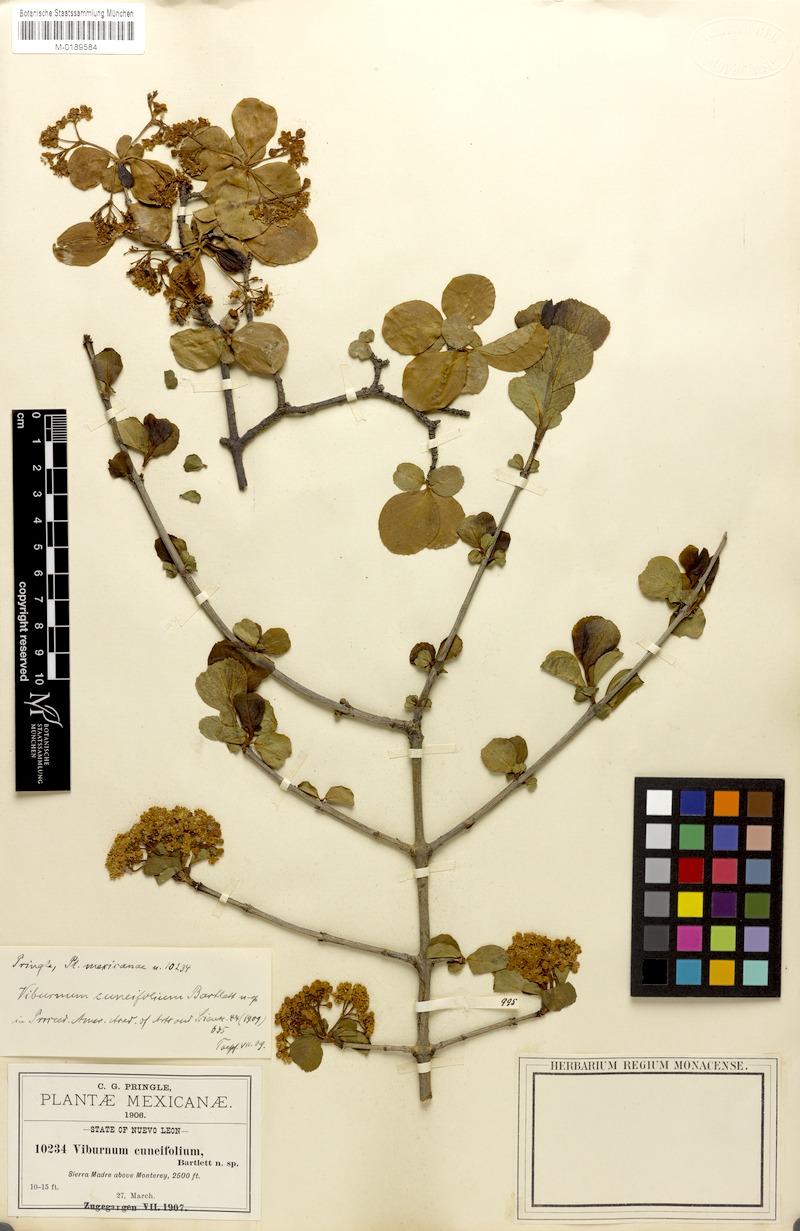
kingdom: Plantae
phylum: Tracheophyta
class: Magnoliopsida
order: Dipsacales
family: Viburnaceae
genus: Viburnum
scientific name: Viburnum elatum
